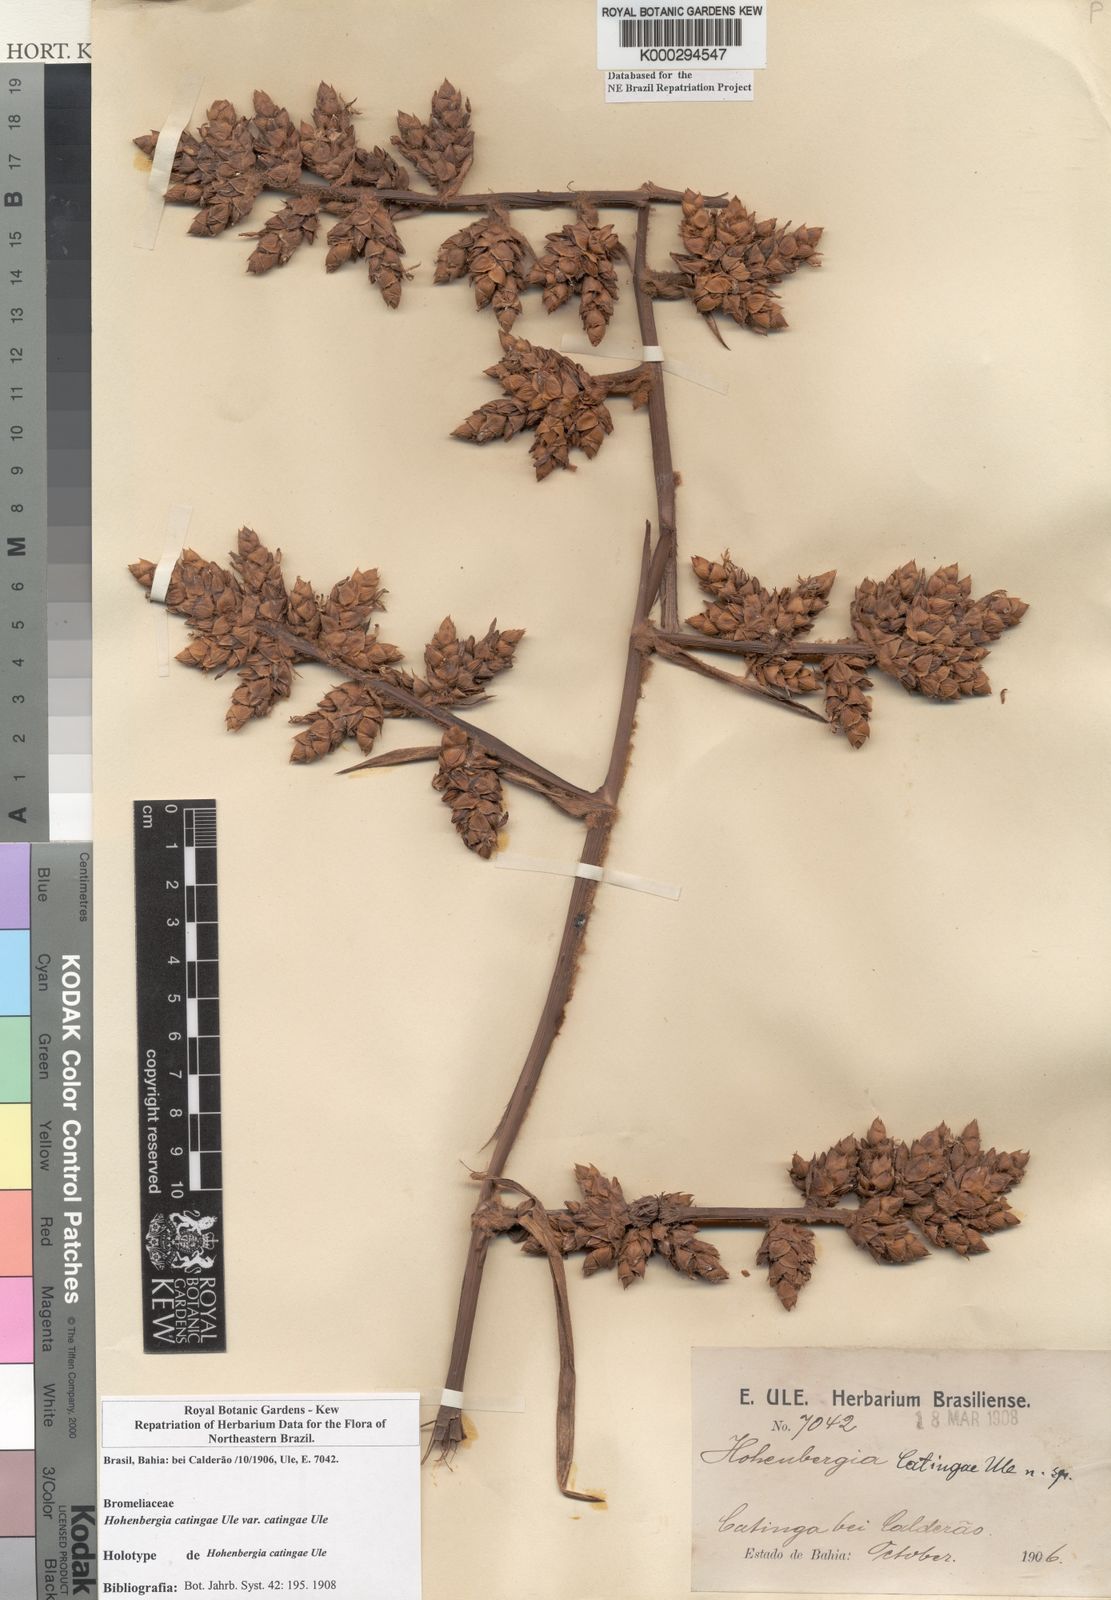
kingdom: Plantae
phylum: Tracheophyta
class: Liliopsida
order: Poales
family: Bromeliaceae
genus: Hohenbergia
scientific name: Hohenbergia catingae
